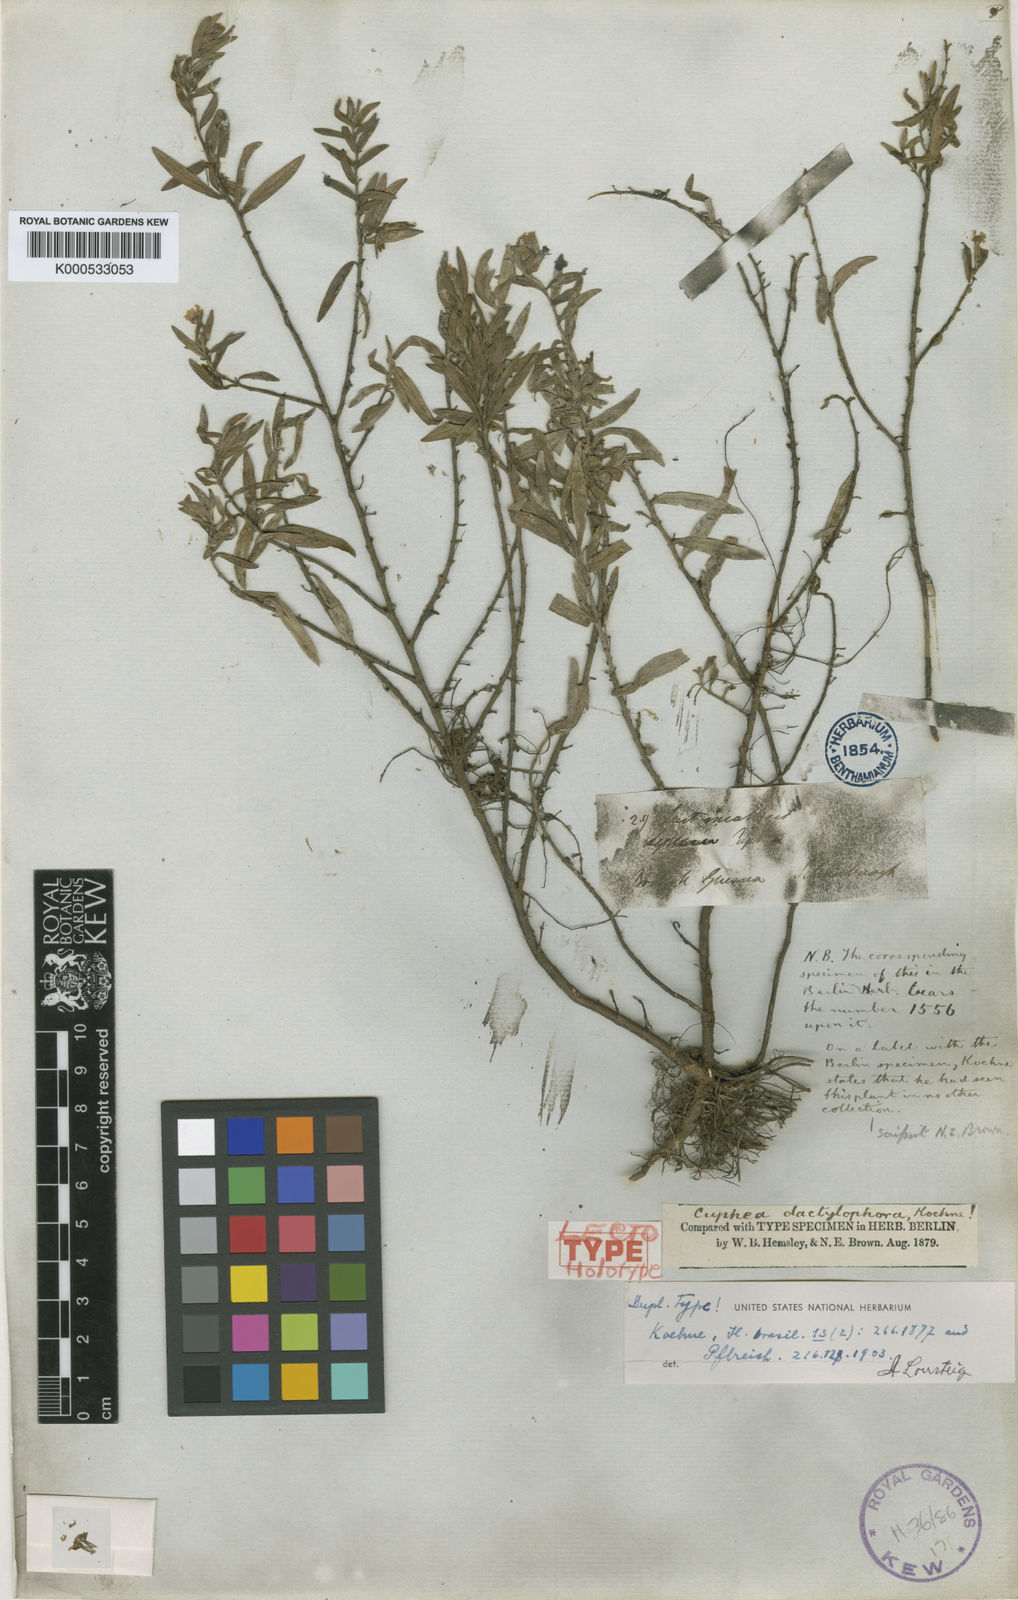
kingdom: Plantae
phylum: Tracheophyta
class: Magnoliopsida
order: Myrtales
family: Lythraceae
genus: Cuphea
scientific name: Cuphea dactylophora
